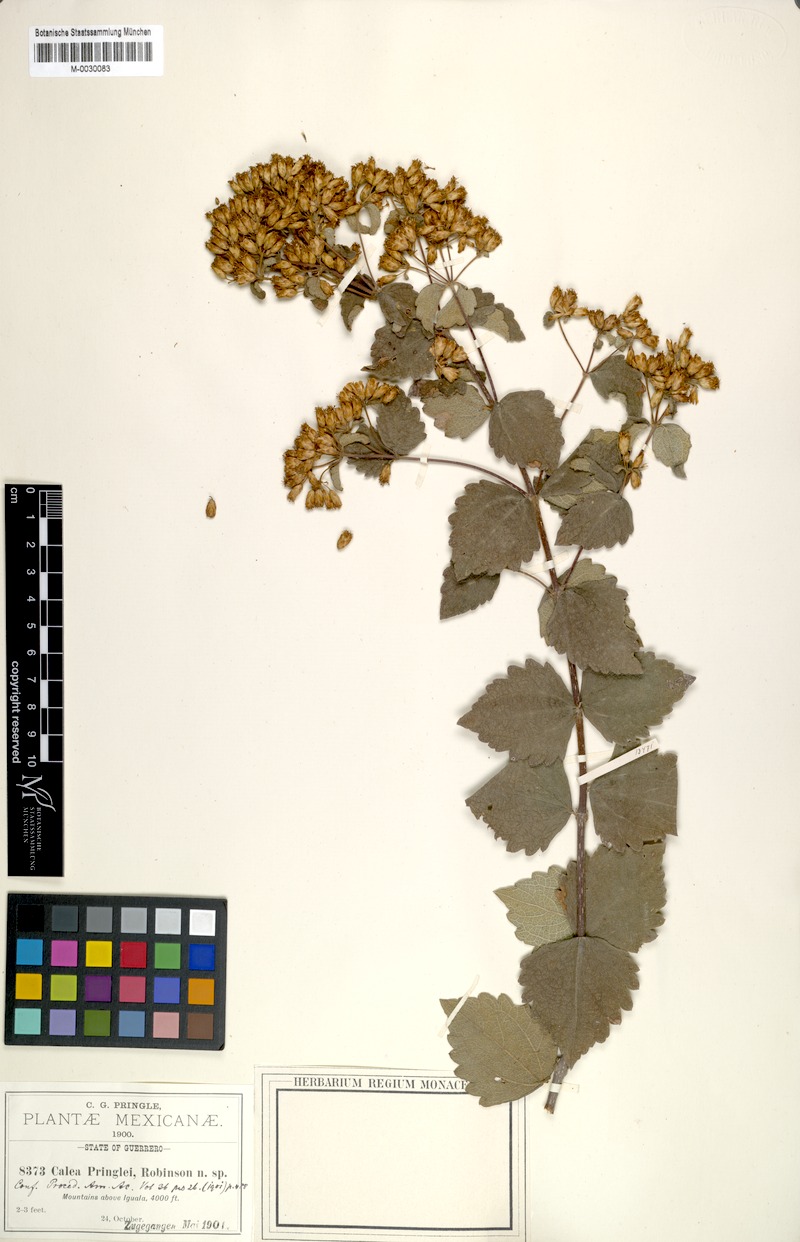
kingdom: Plantae
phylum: Tracheophyta
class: Magnoliopsida
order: Asterales
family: Asteraceae
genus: Calea
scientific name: Calea ternifolia
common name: Mexican calea
